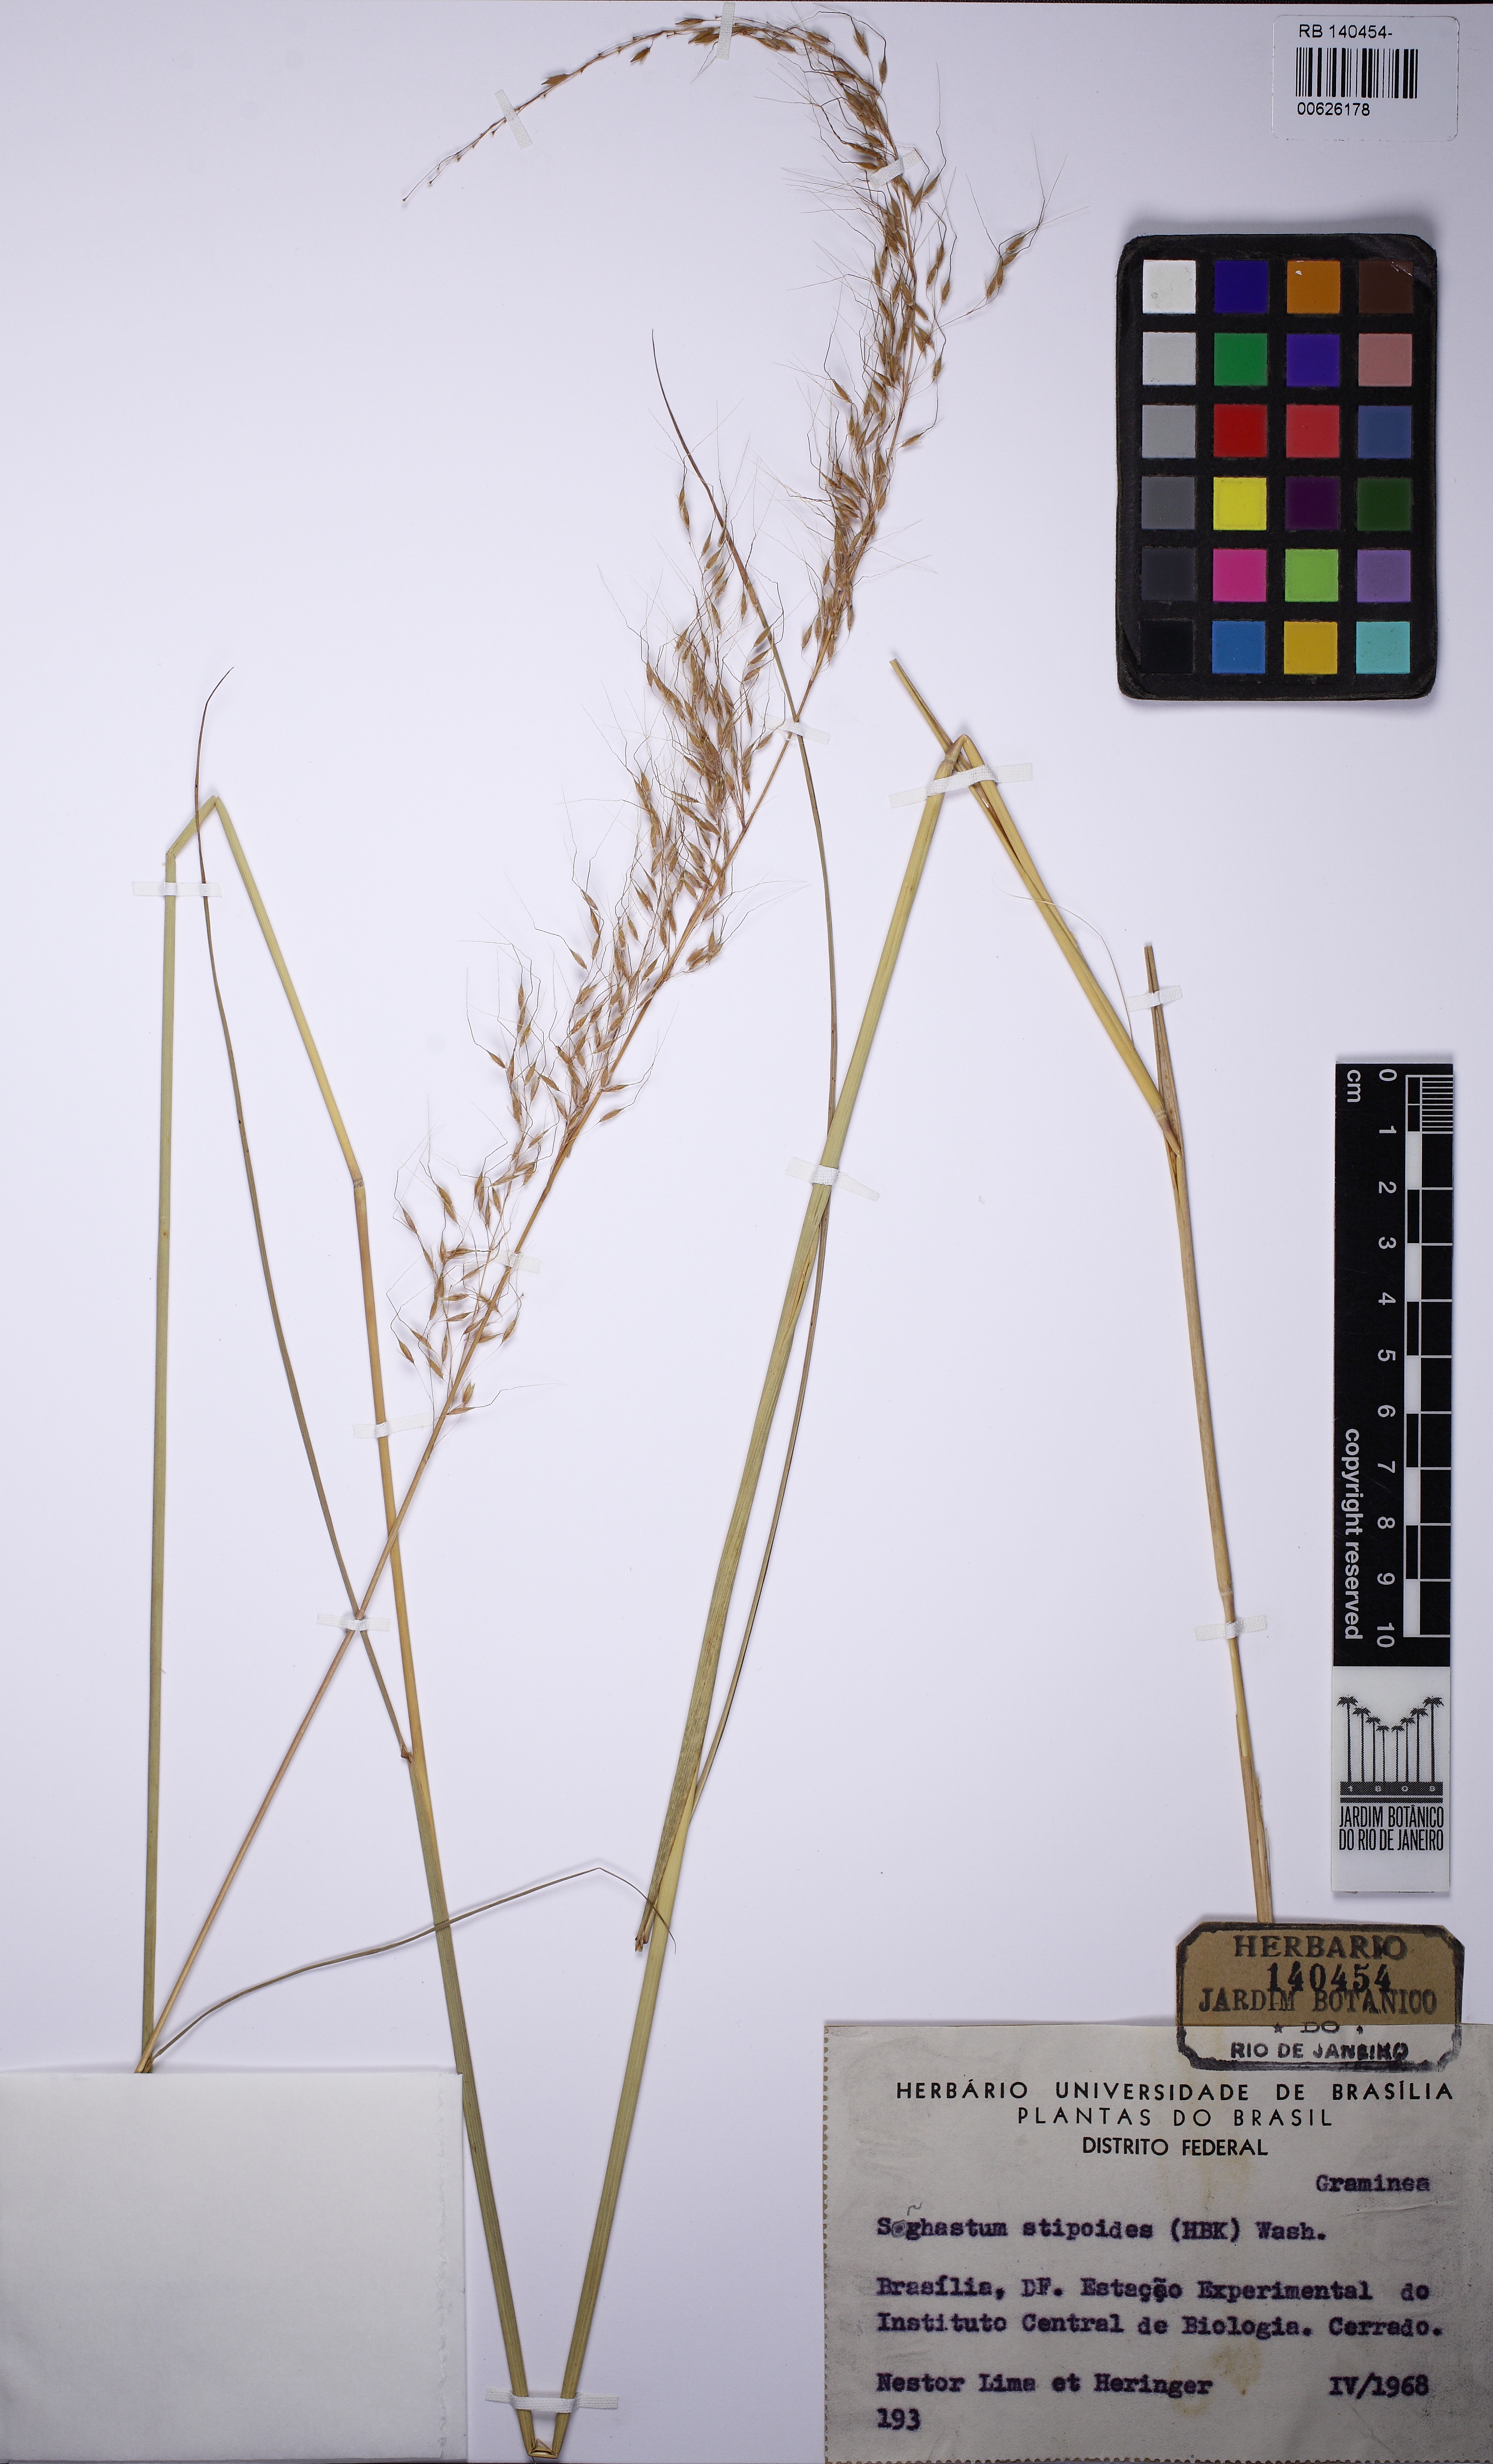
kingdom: Plantae
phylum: Tracheophyta
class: Liliopsida
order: Poales
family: Poaceae
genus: Sorghastrum
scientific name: Sorghastrum stipoides
